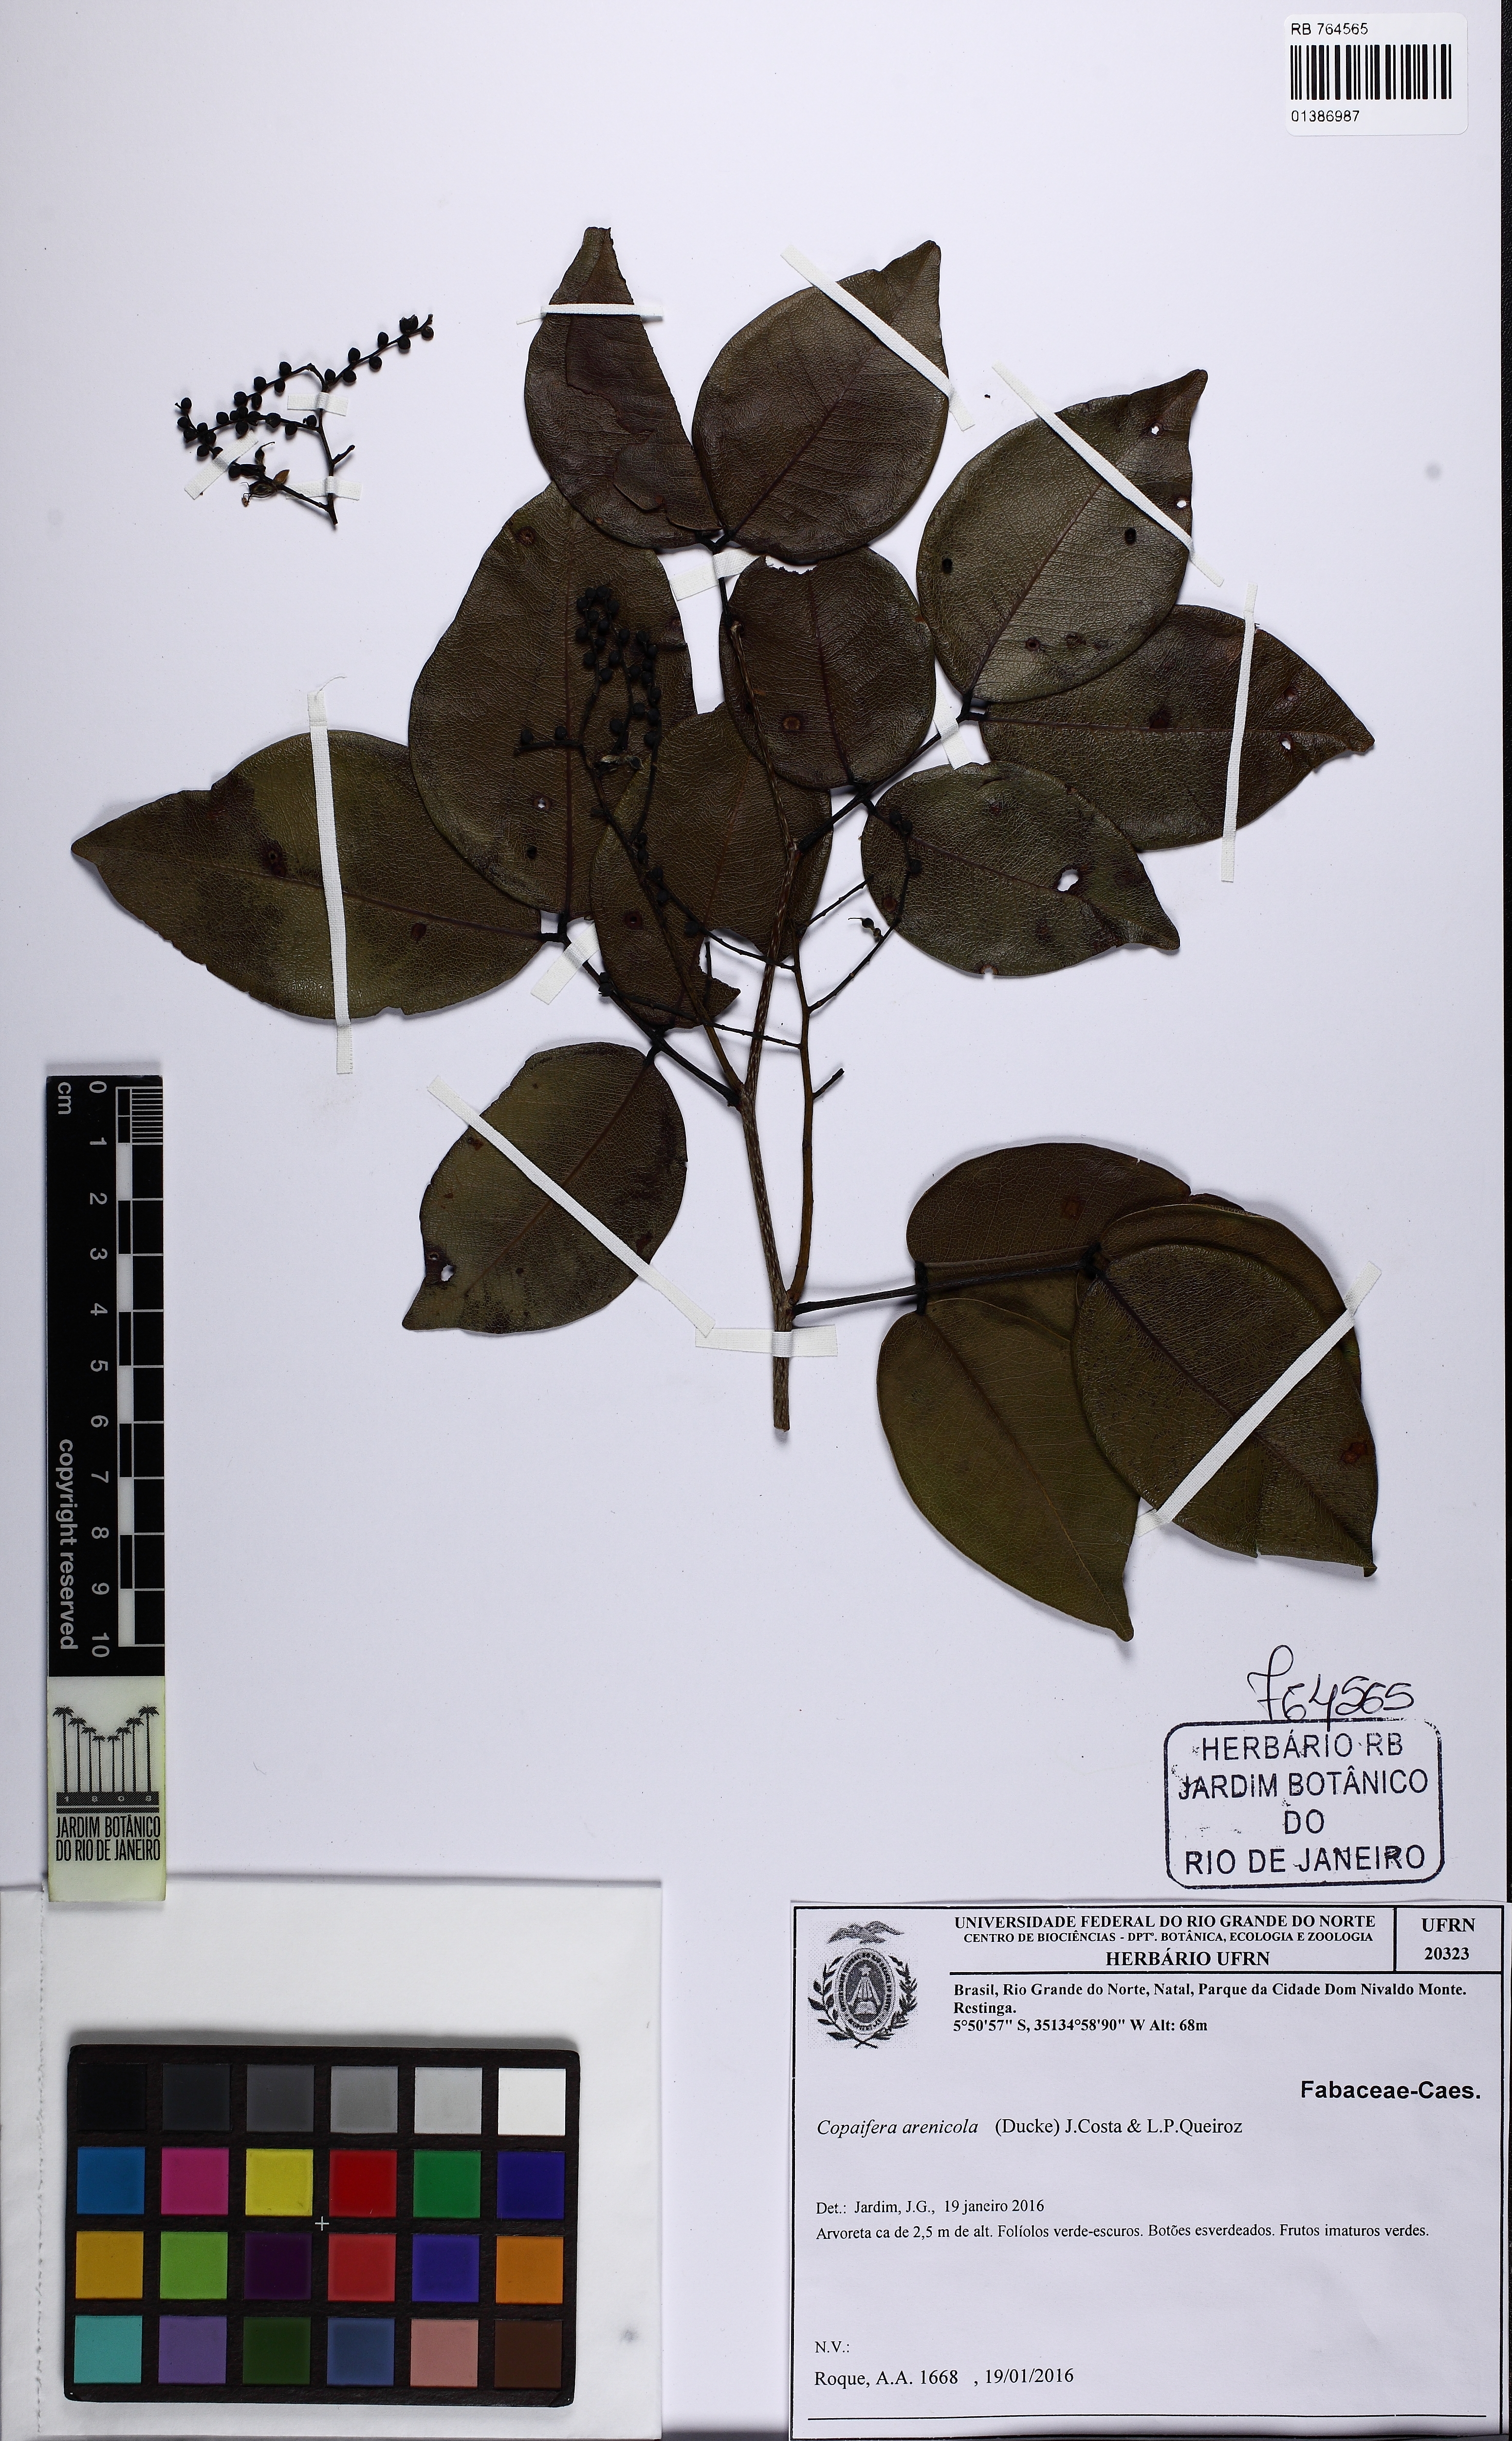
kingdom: Plantae
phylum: Tracheophyta
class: Magnoliopsida
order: Fabales
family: Fabaceae
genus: Copaifera
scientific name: Copaifera arenicola
